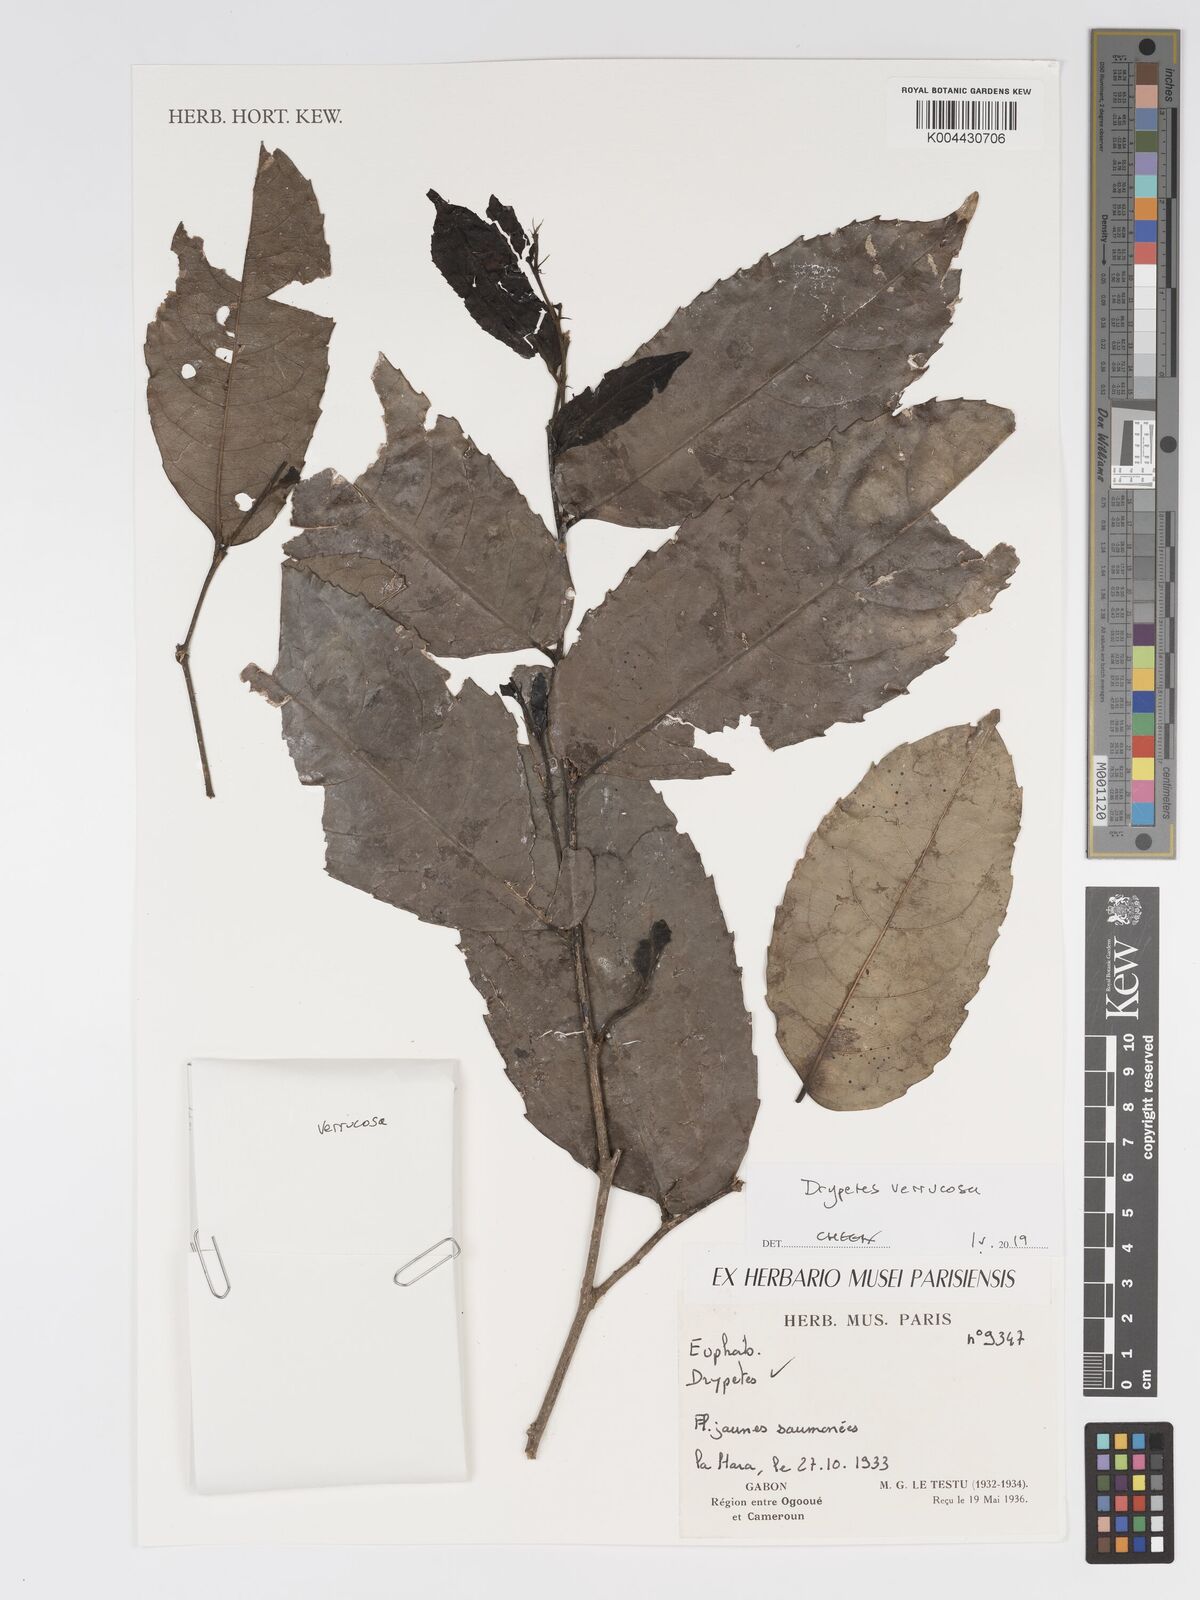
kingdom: Plantae
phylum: Tracheophyta
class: Magnoliopsida
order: Malpighiales
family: Putranjivaceae
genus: Drypetes
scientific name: Drypetes verrucosa
